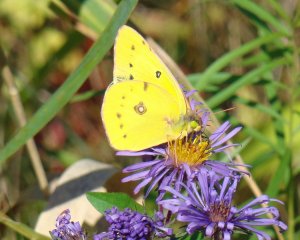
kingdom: Animalia
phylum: Arthropoda
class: Insecta
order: Lepidoptera
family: Pieridae
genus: Colias
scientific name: Colias eurytheme
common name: Orange Sulphur
